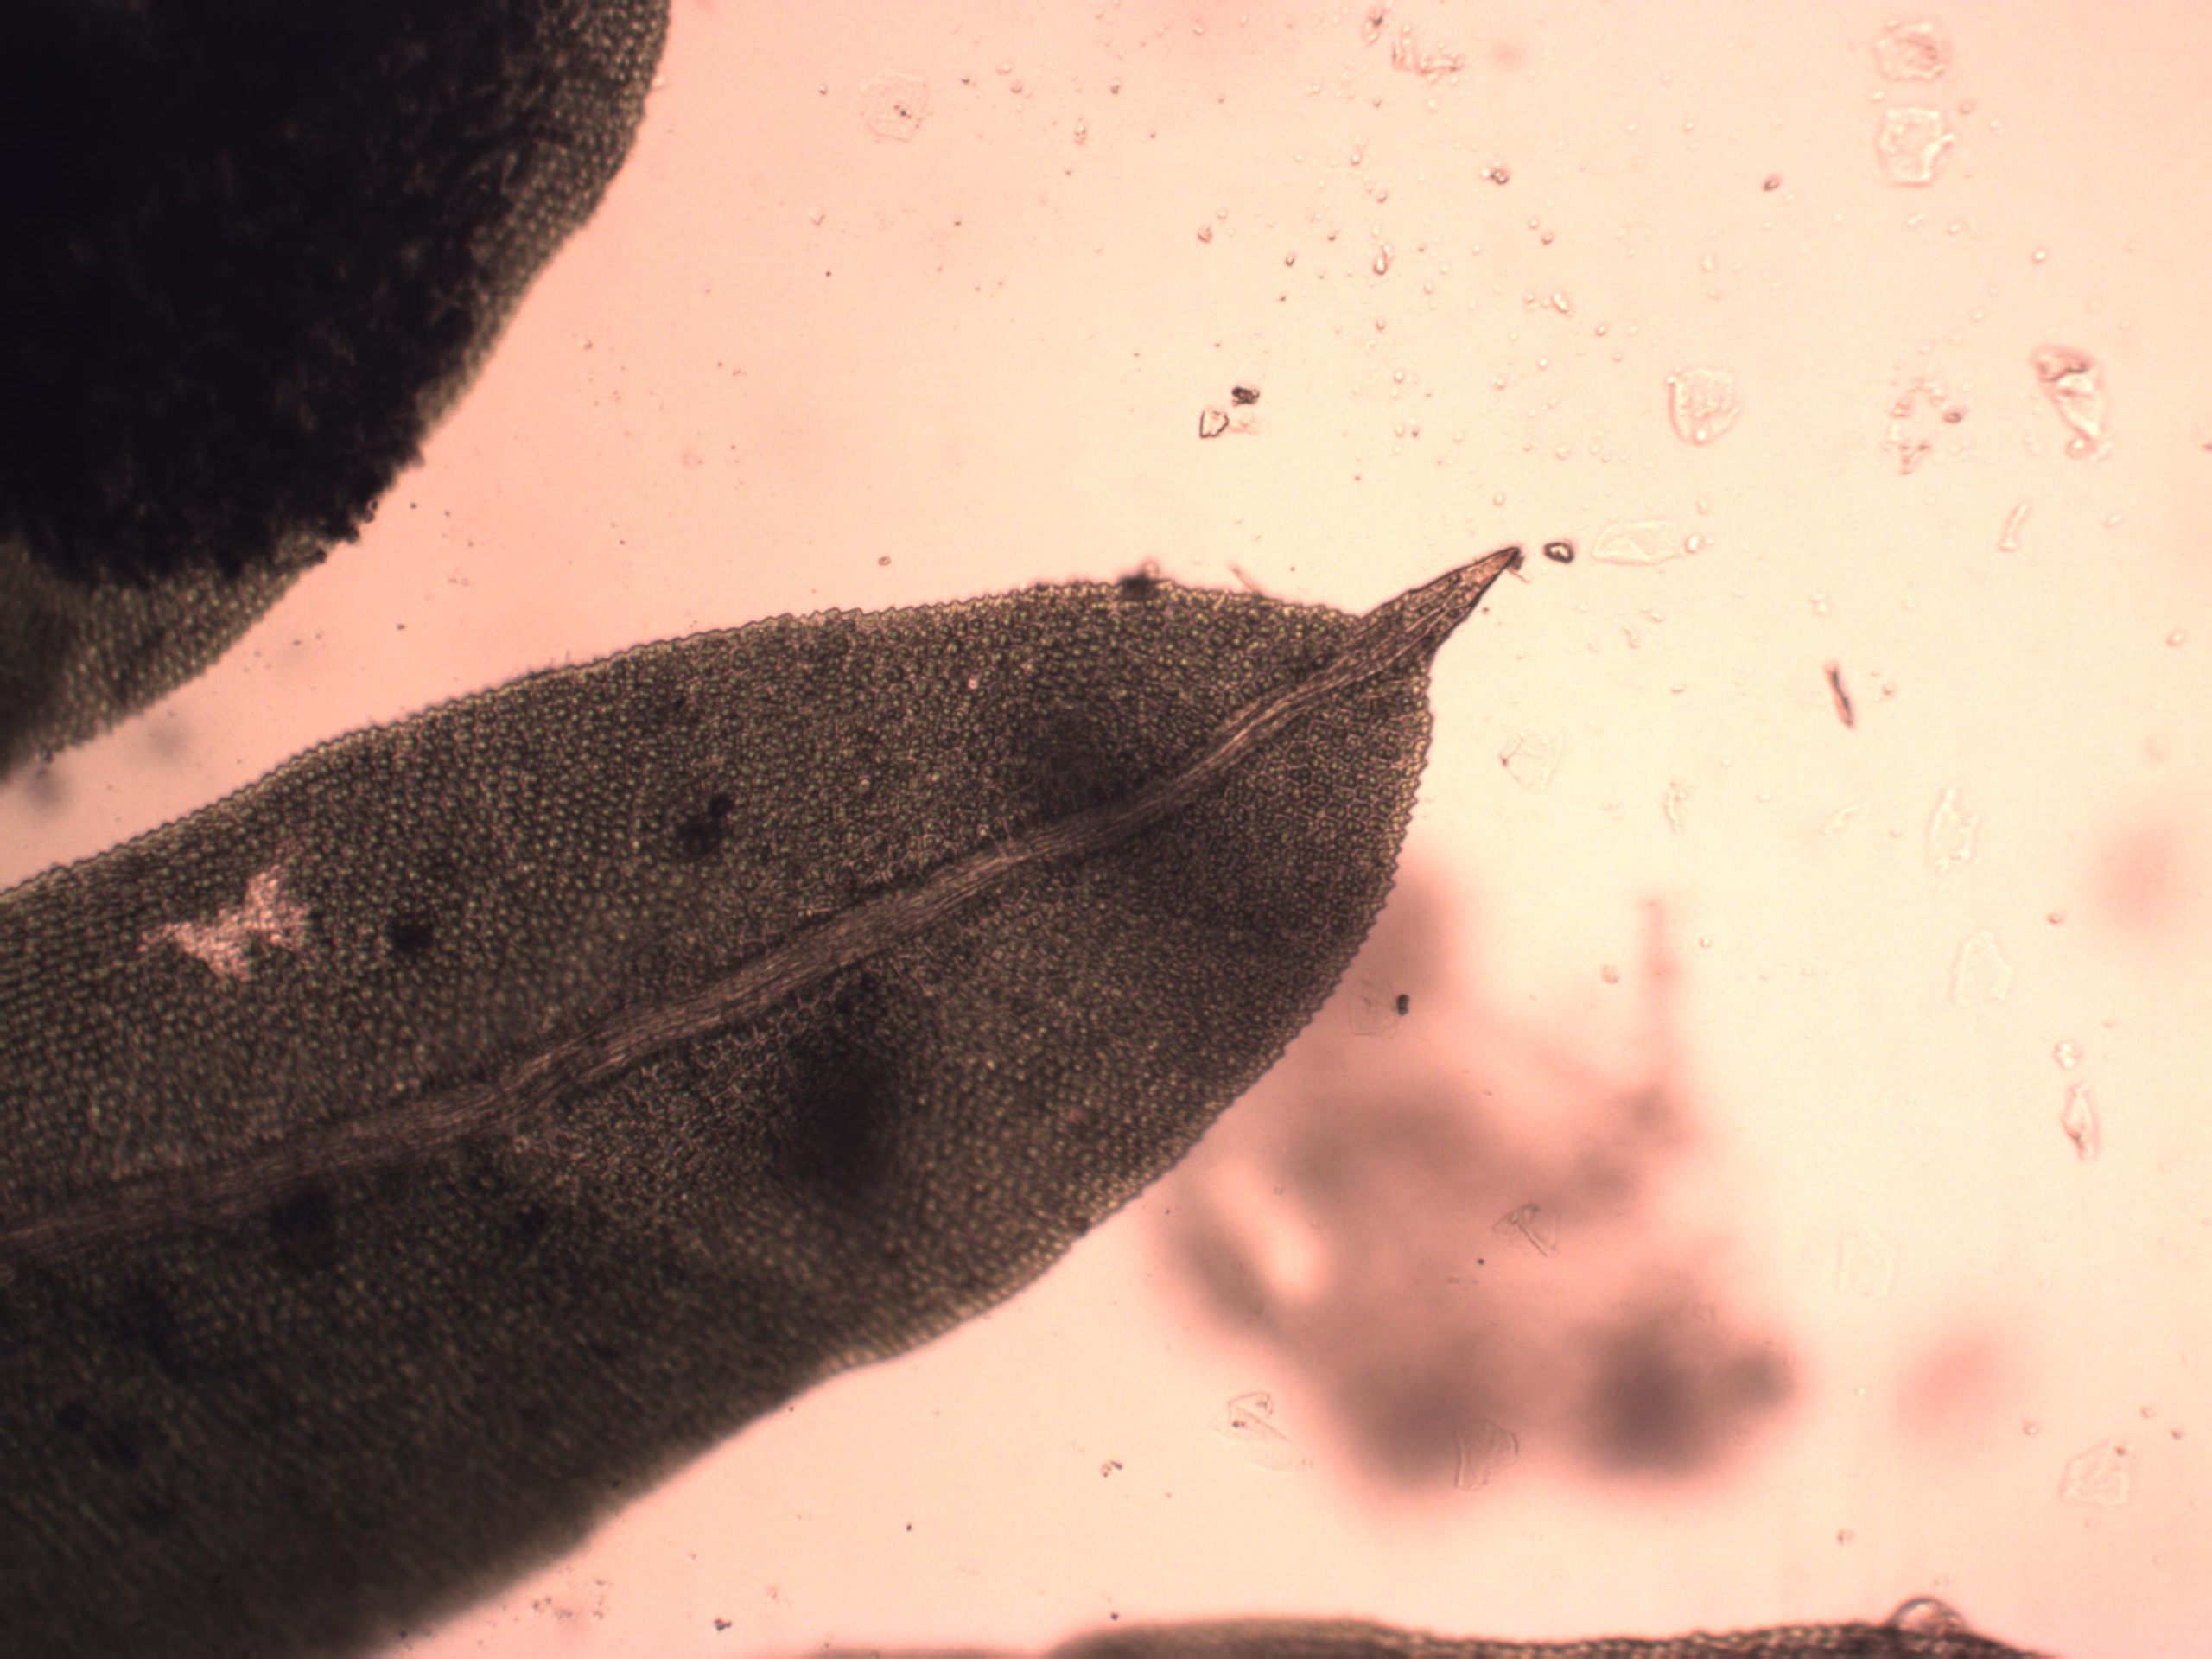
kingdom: Plantae
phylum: Bryophyta
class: Bryopsida
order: Dicranales
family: Fissidentaceae
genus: Fissidens
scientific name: Fissidens taxifolius
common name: Taksbladet rademos
